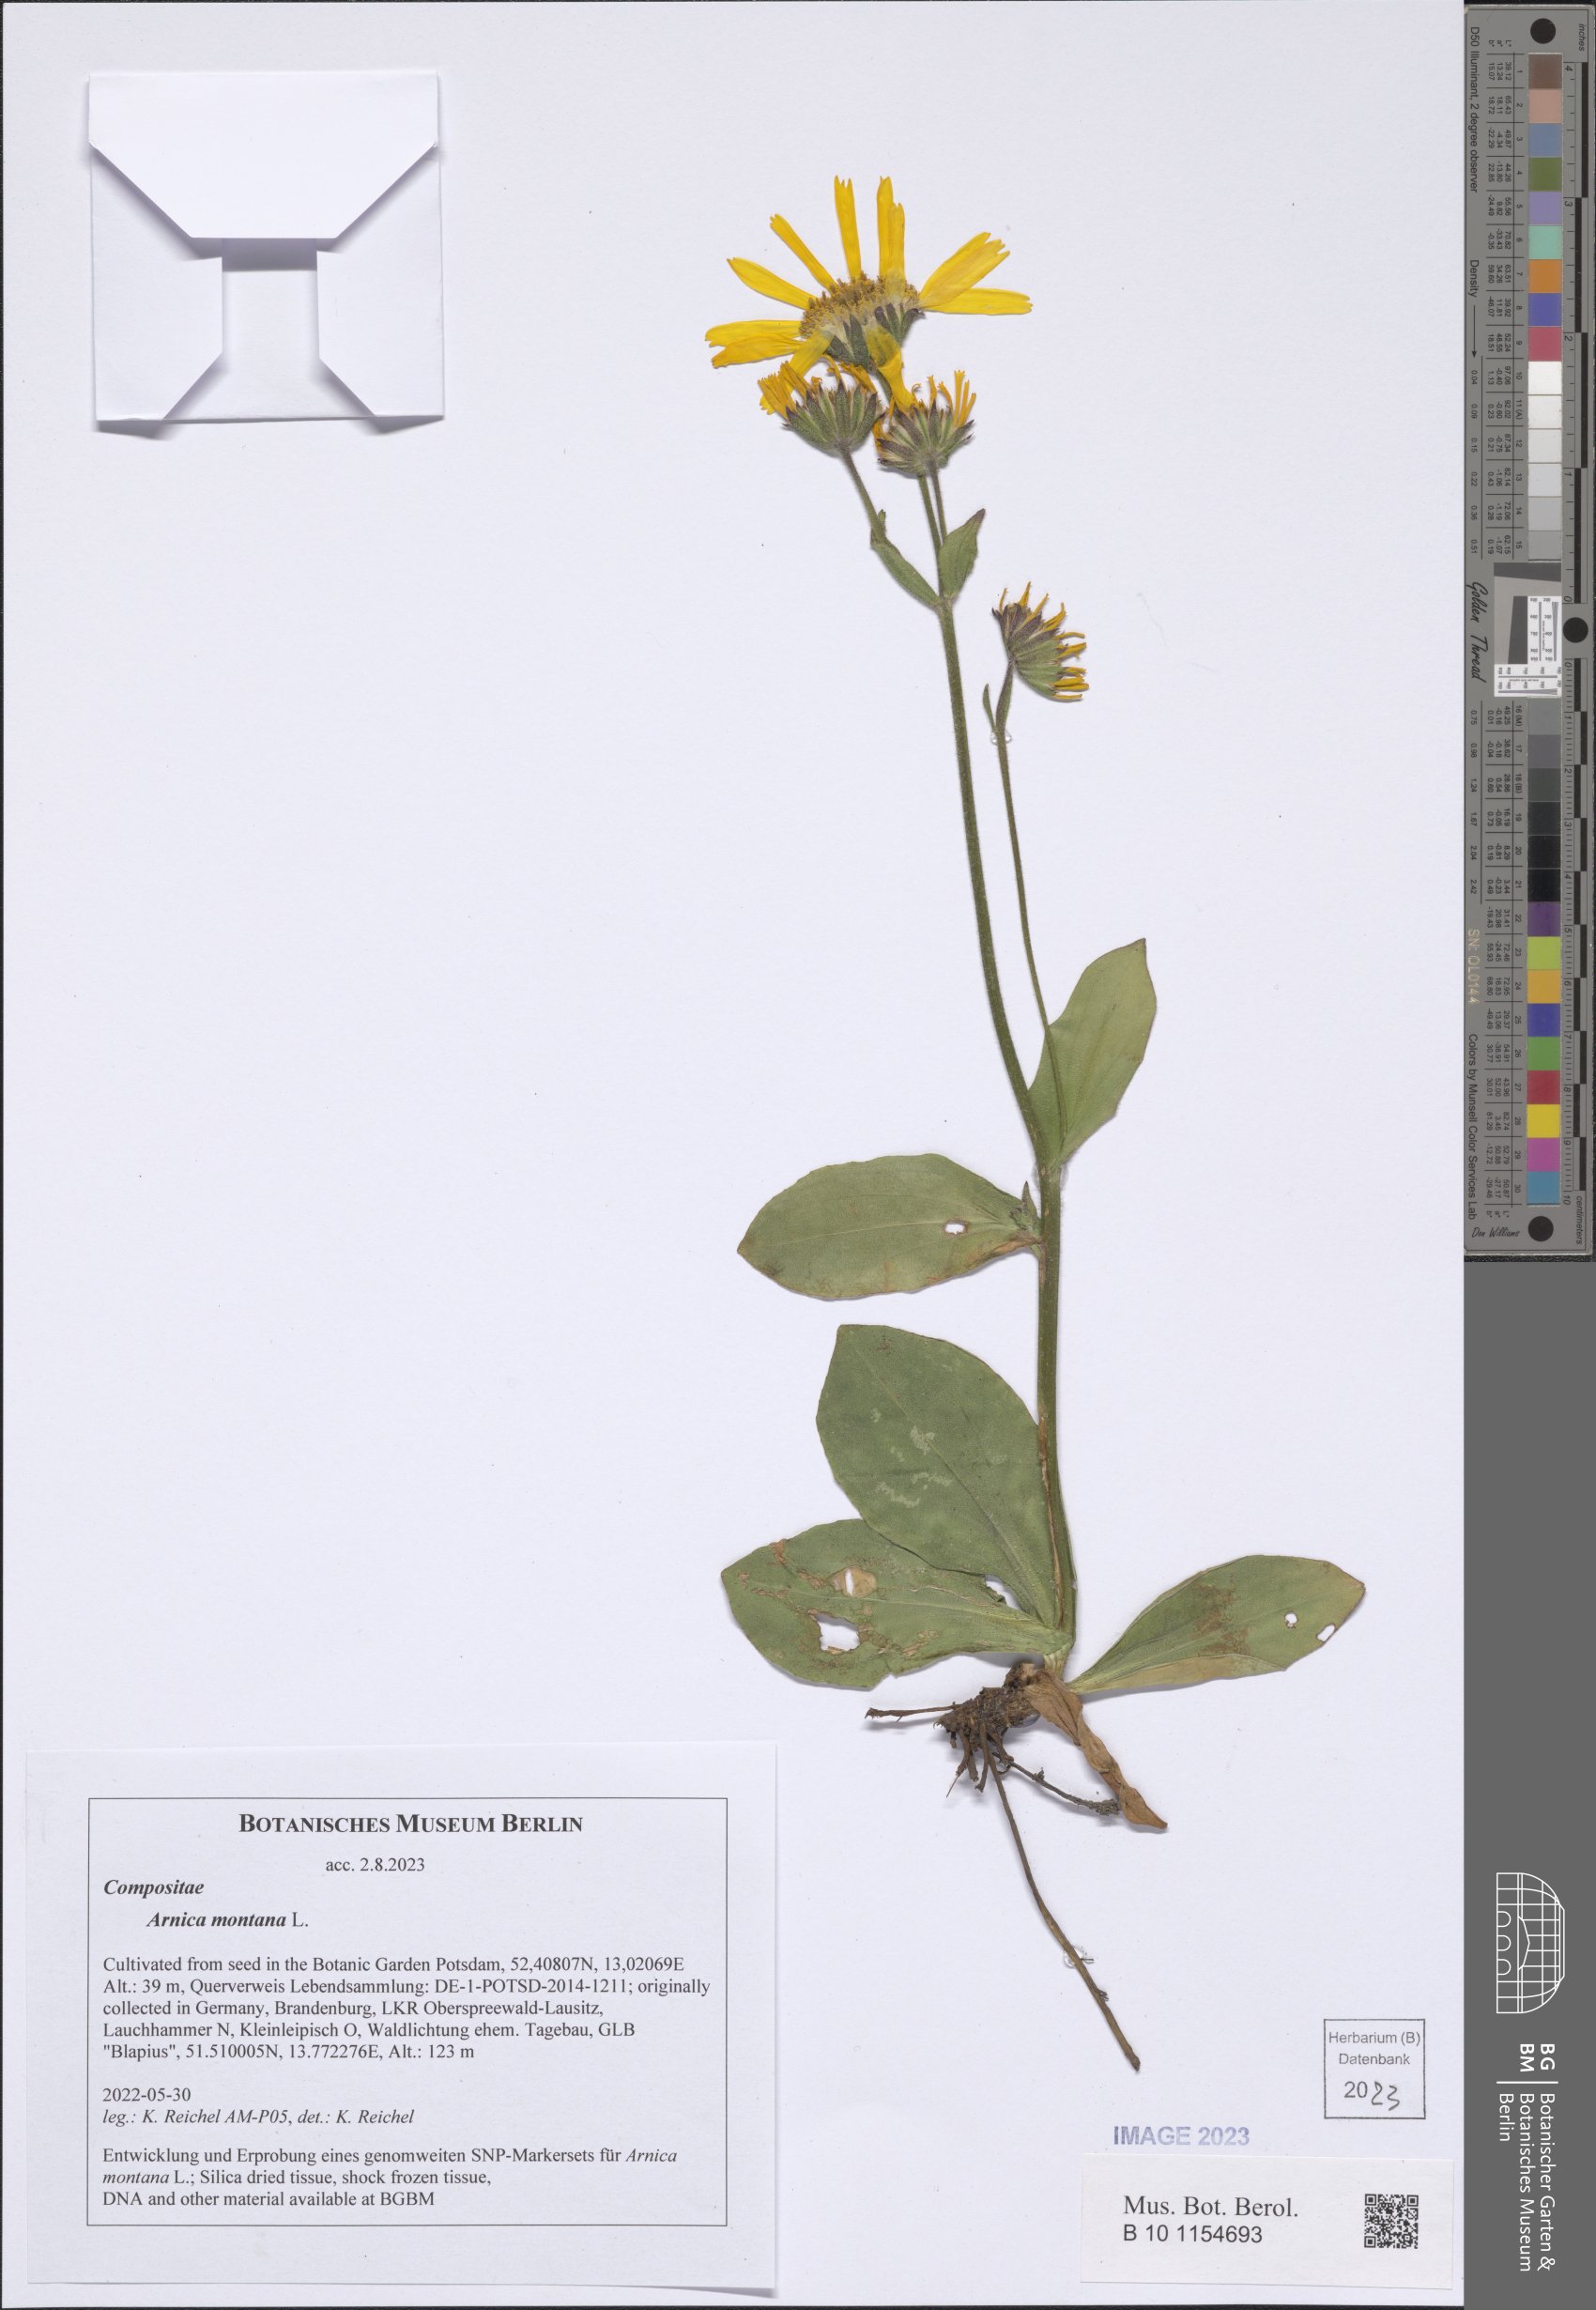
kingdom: Plantae
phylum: Tracheophyta
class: Magnoliopsida
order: Asterales
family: Asteraceae
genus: Arnica
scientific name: Arnica montana
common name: Leopard's bane
